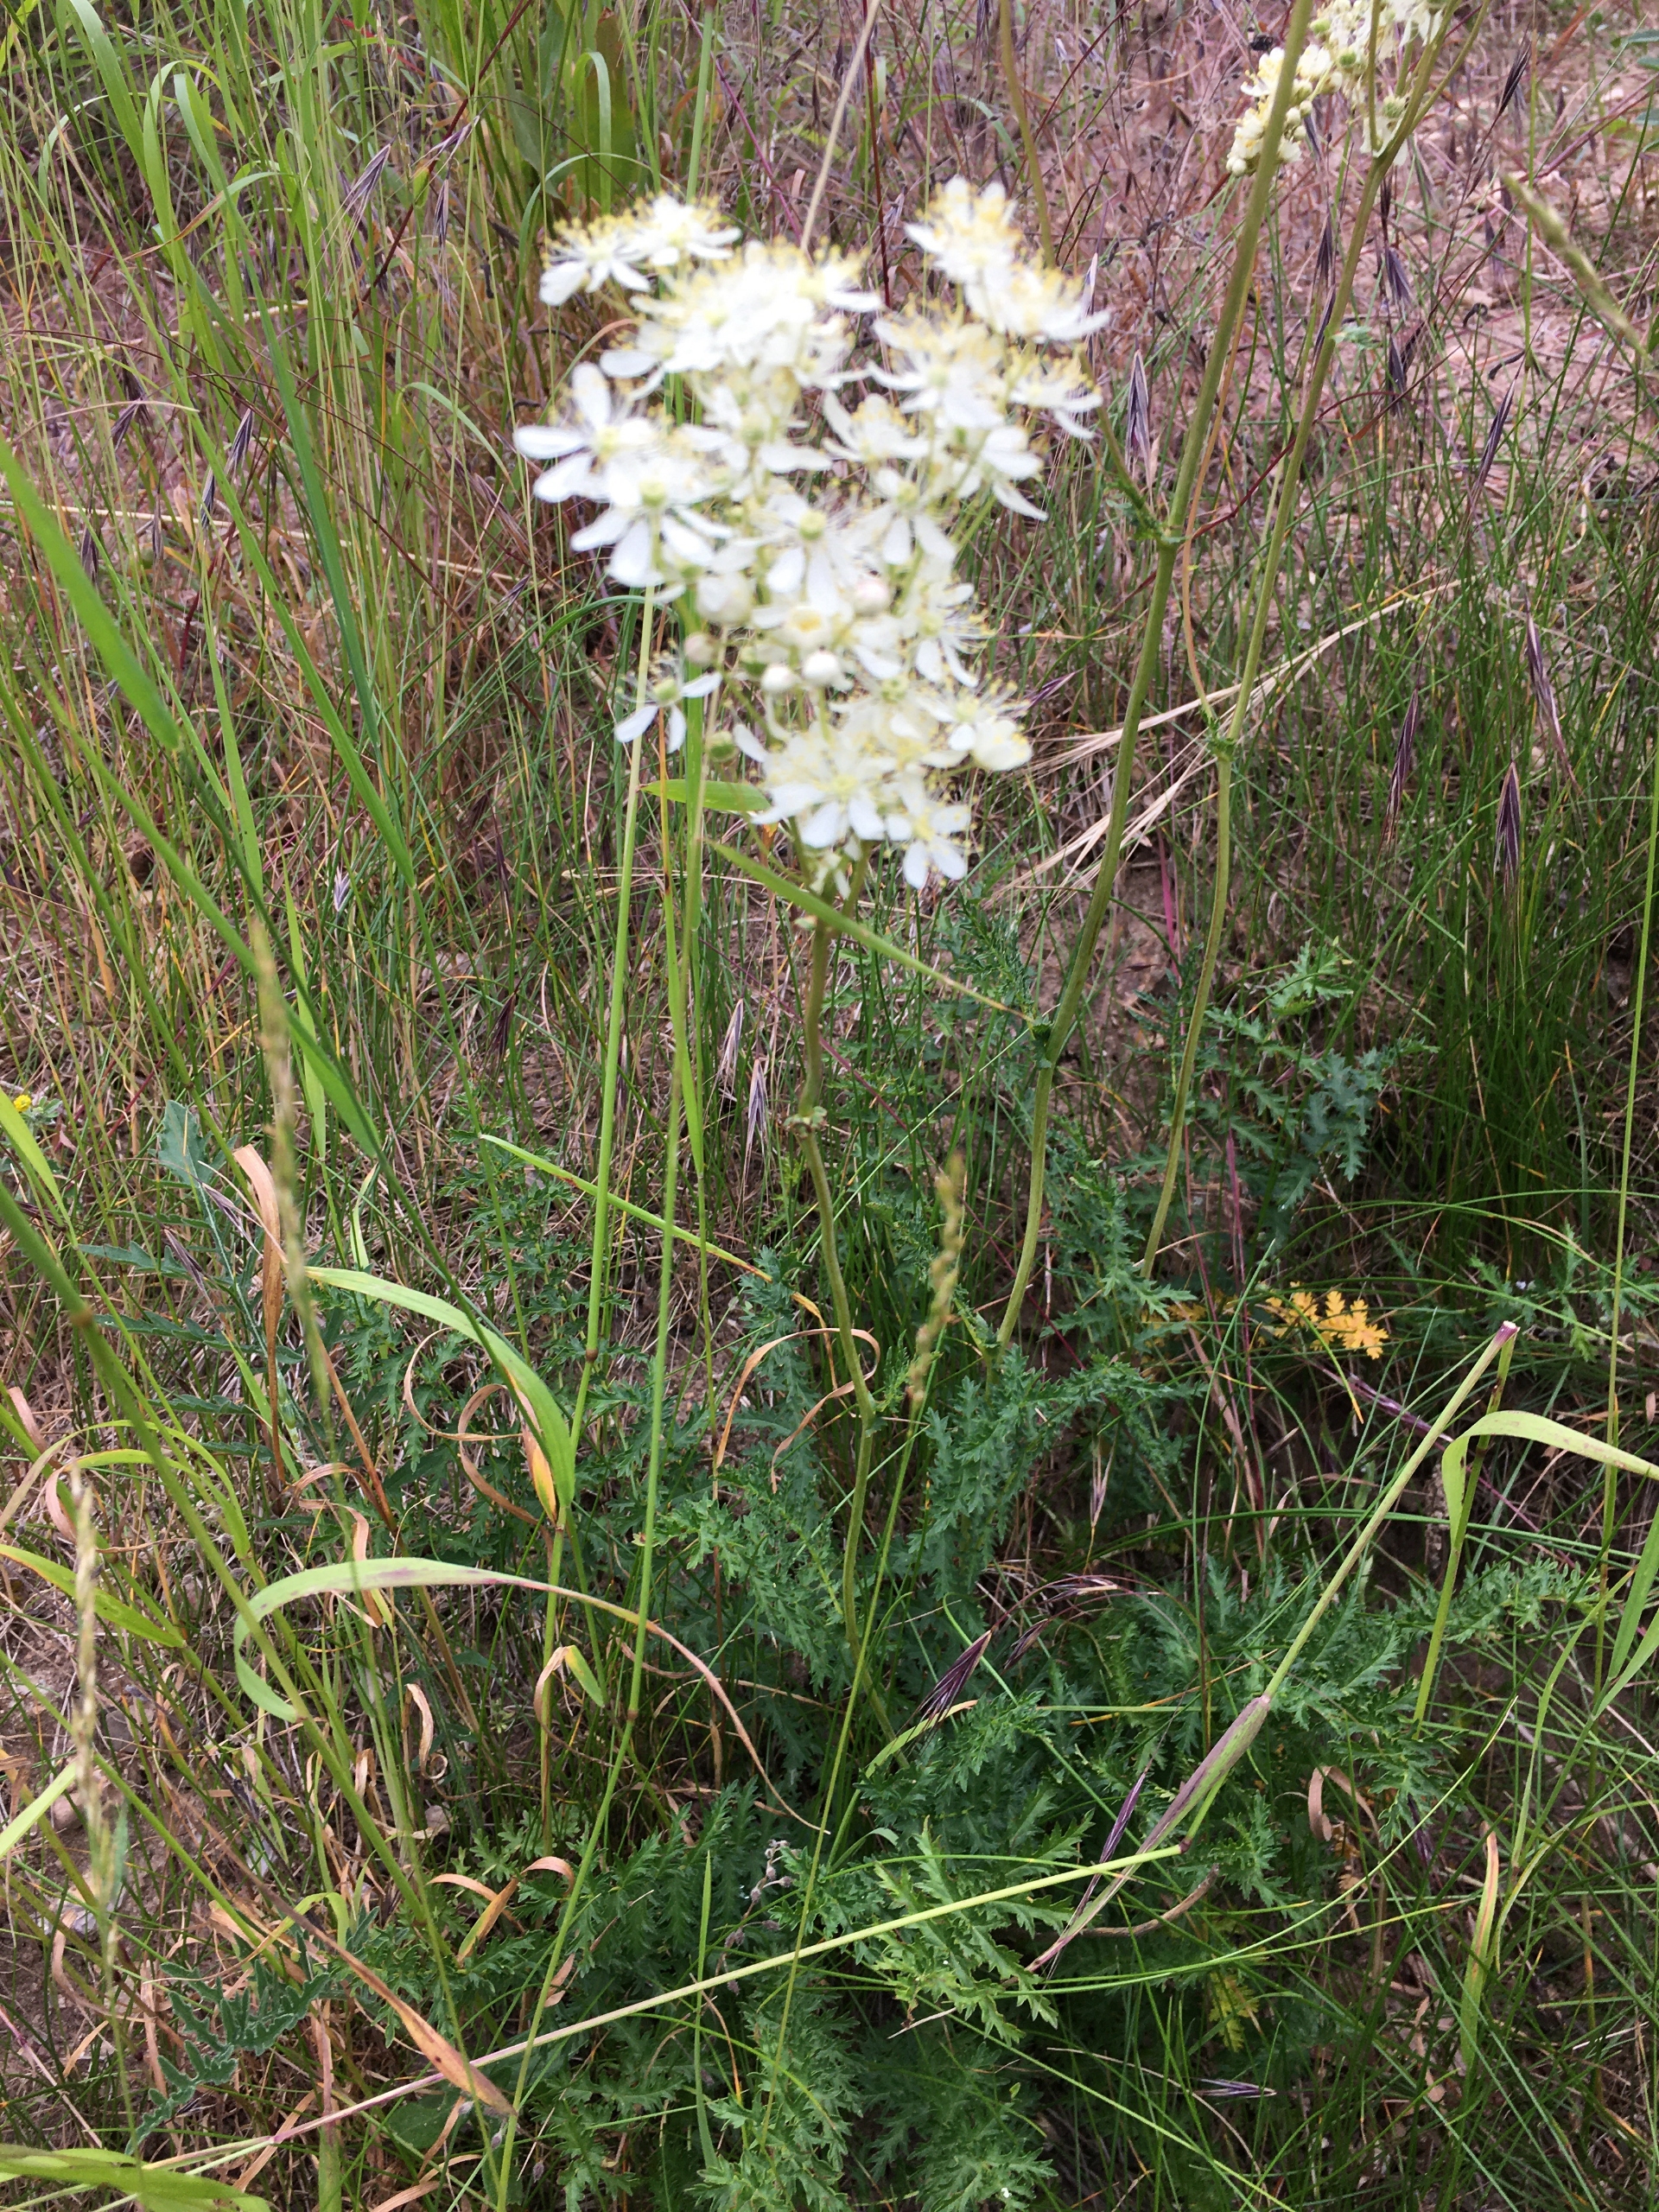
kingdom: Plantae
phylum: Tracheophyta
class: Magnoliopsida
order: Rosales
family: Rosaceae
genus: Filipendula
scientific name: Filipendula vulgaris
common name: Knoldet mjødurt
